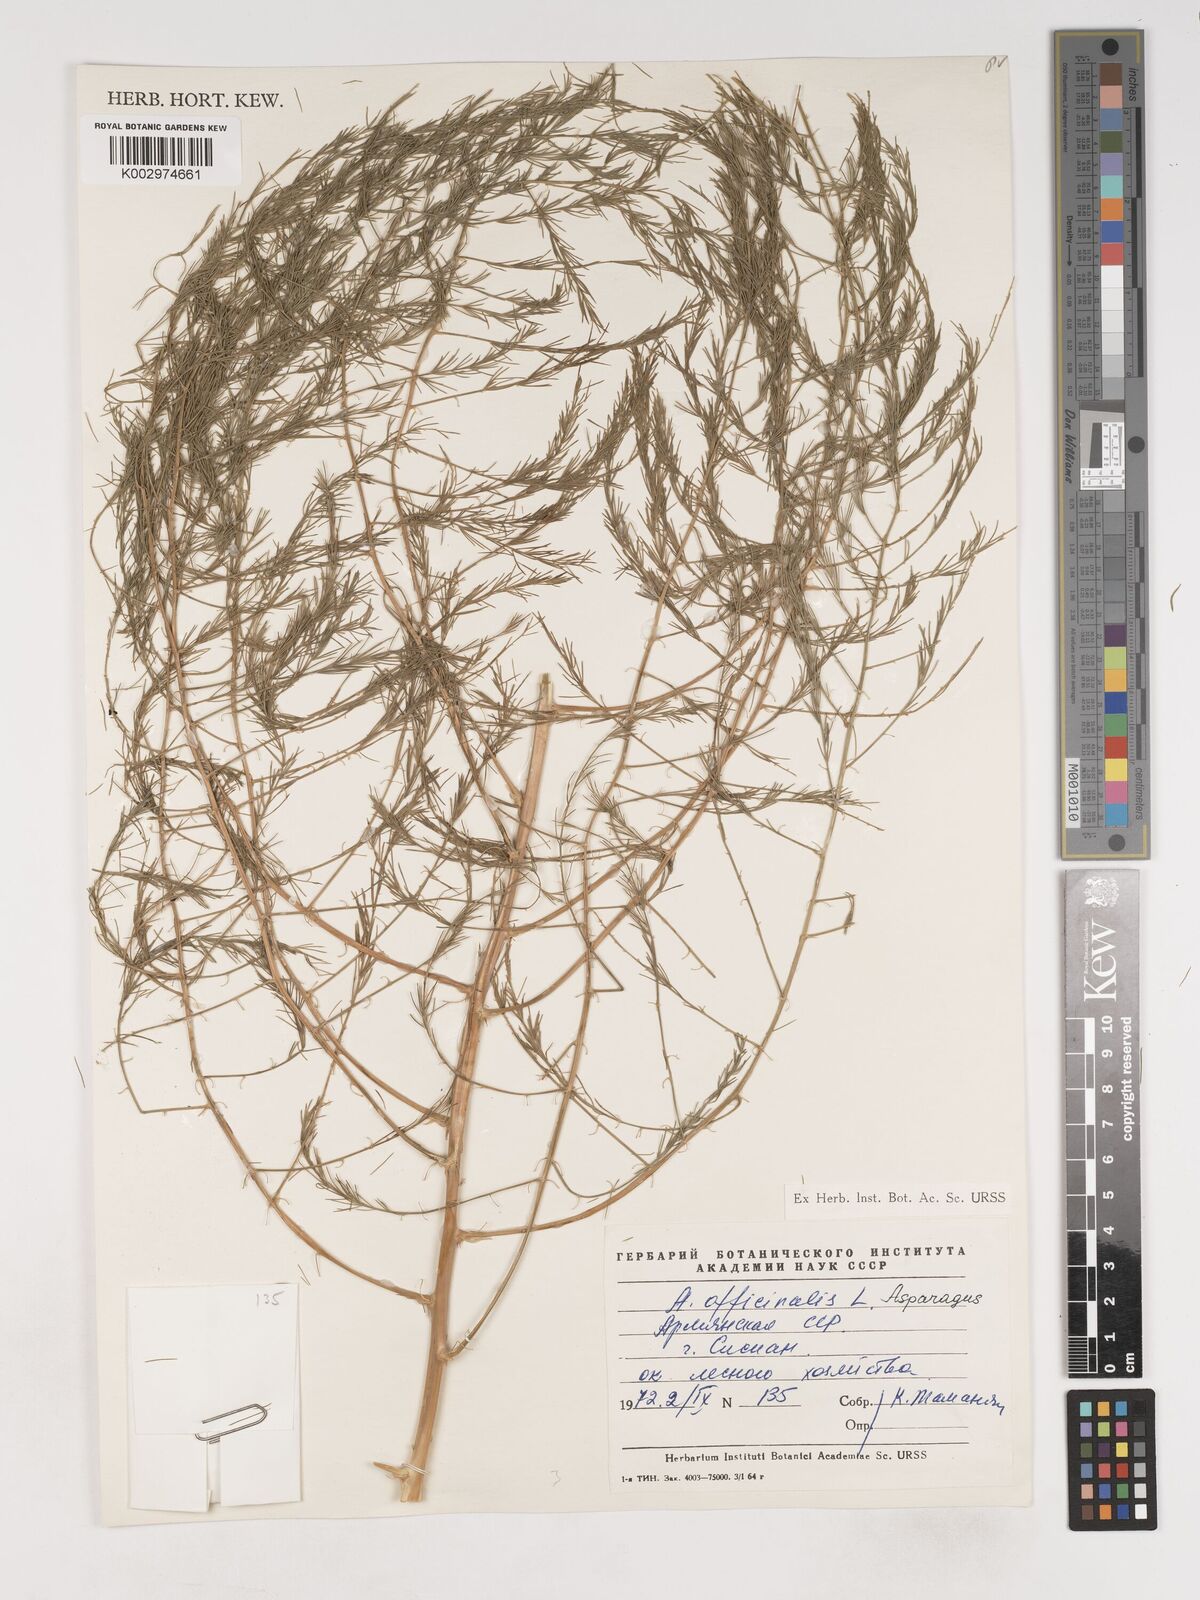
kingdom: Plantae
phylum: Tracheophyta
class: Liliopsida
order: Asparagales
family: Asparagaceae
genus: Asparagus
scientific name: Asparagus officinalis
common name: Garden asparagus
